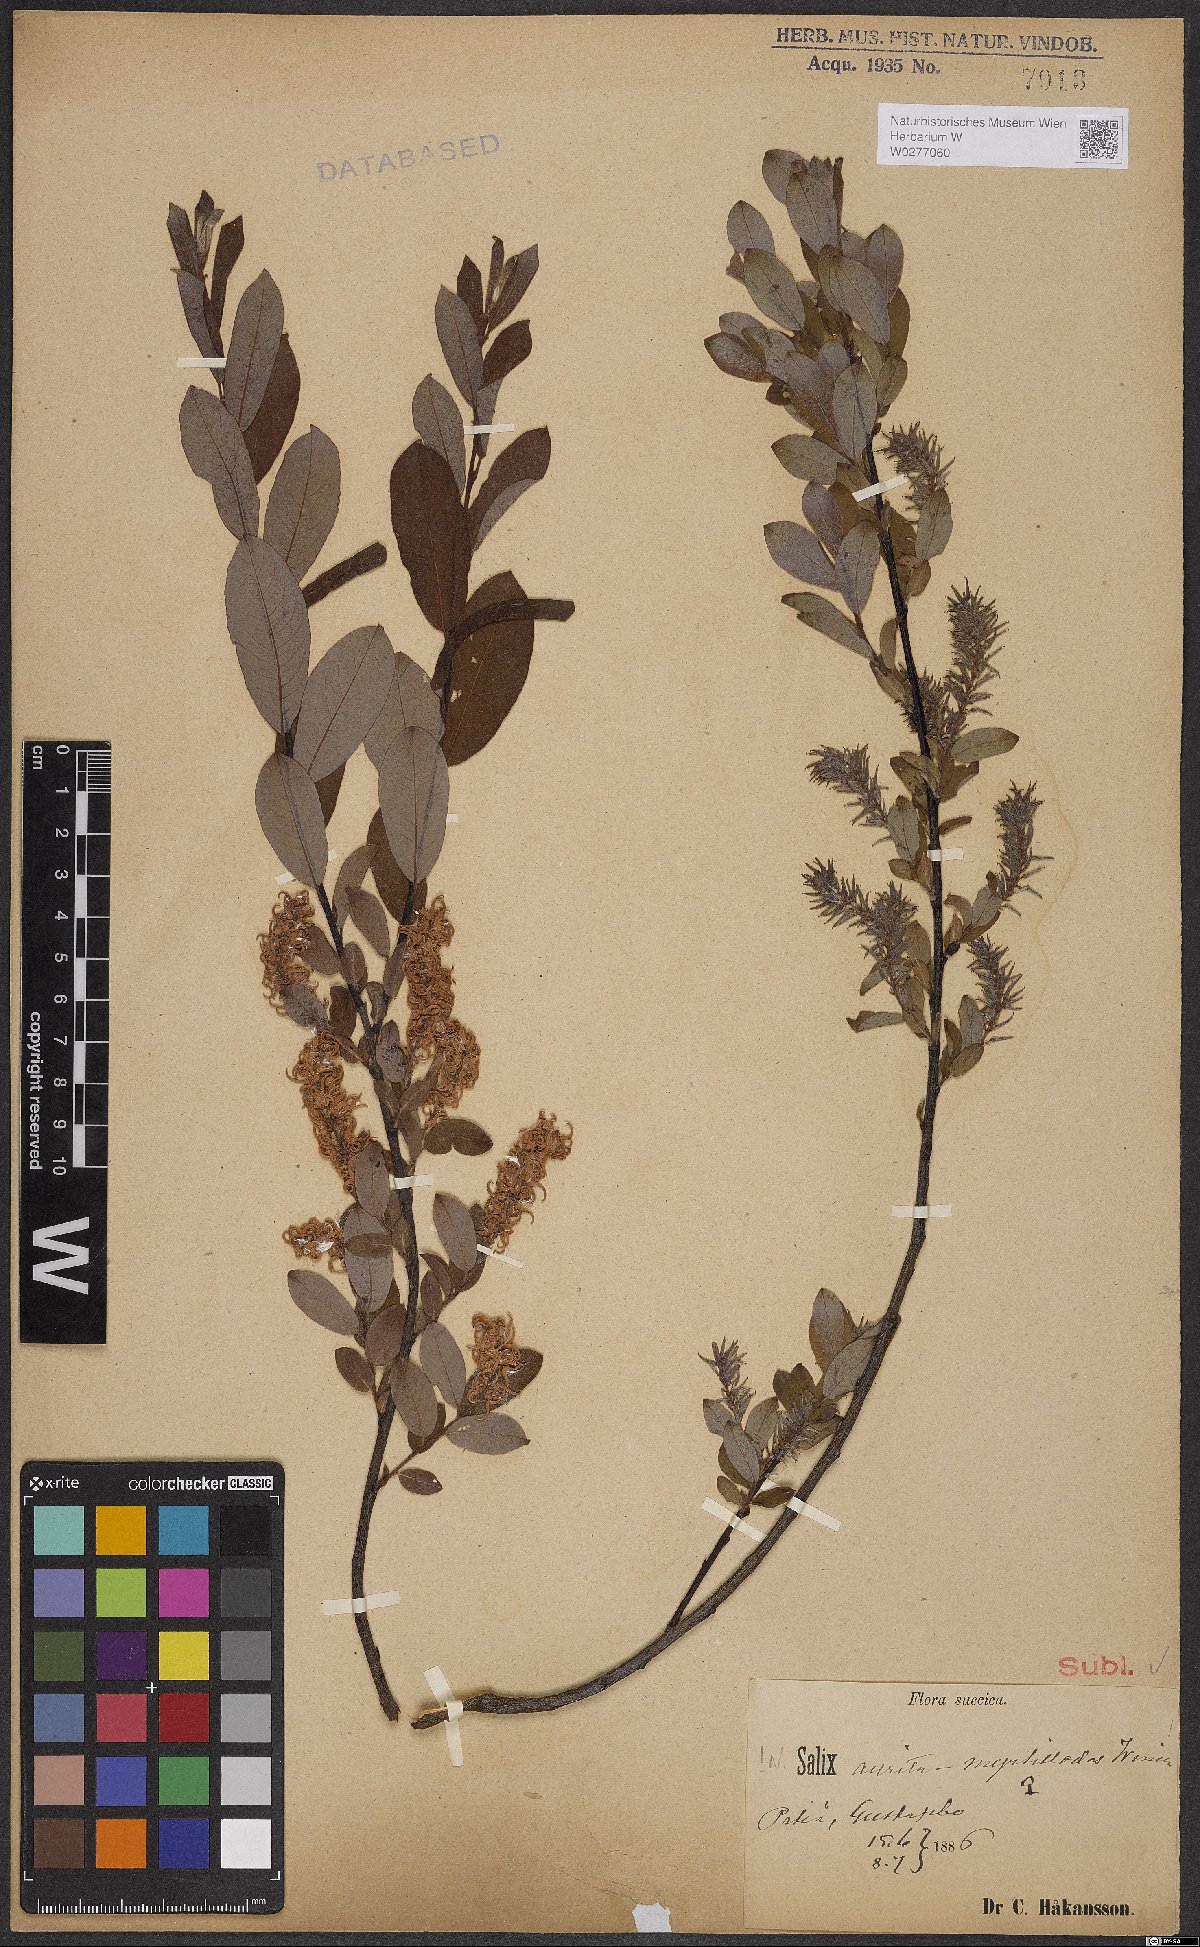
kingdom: Plantae
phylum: Tracheophyta
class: Magnoliopsida
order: Malpighiales
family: Salicaceae
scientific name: Salicaceae
